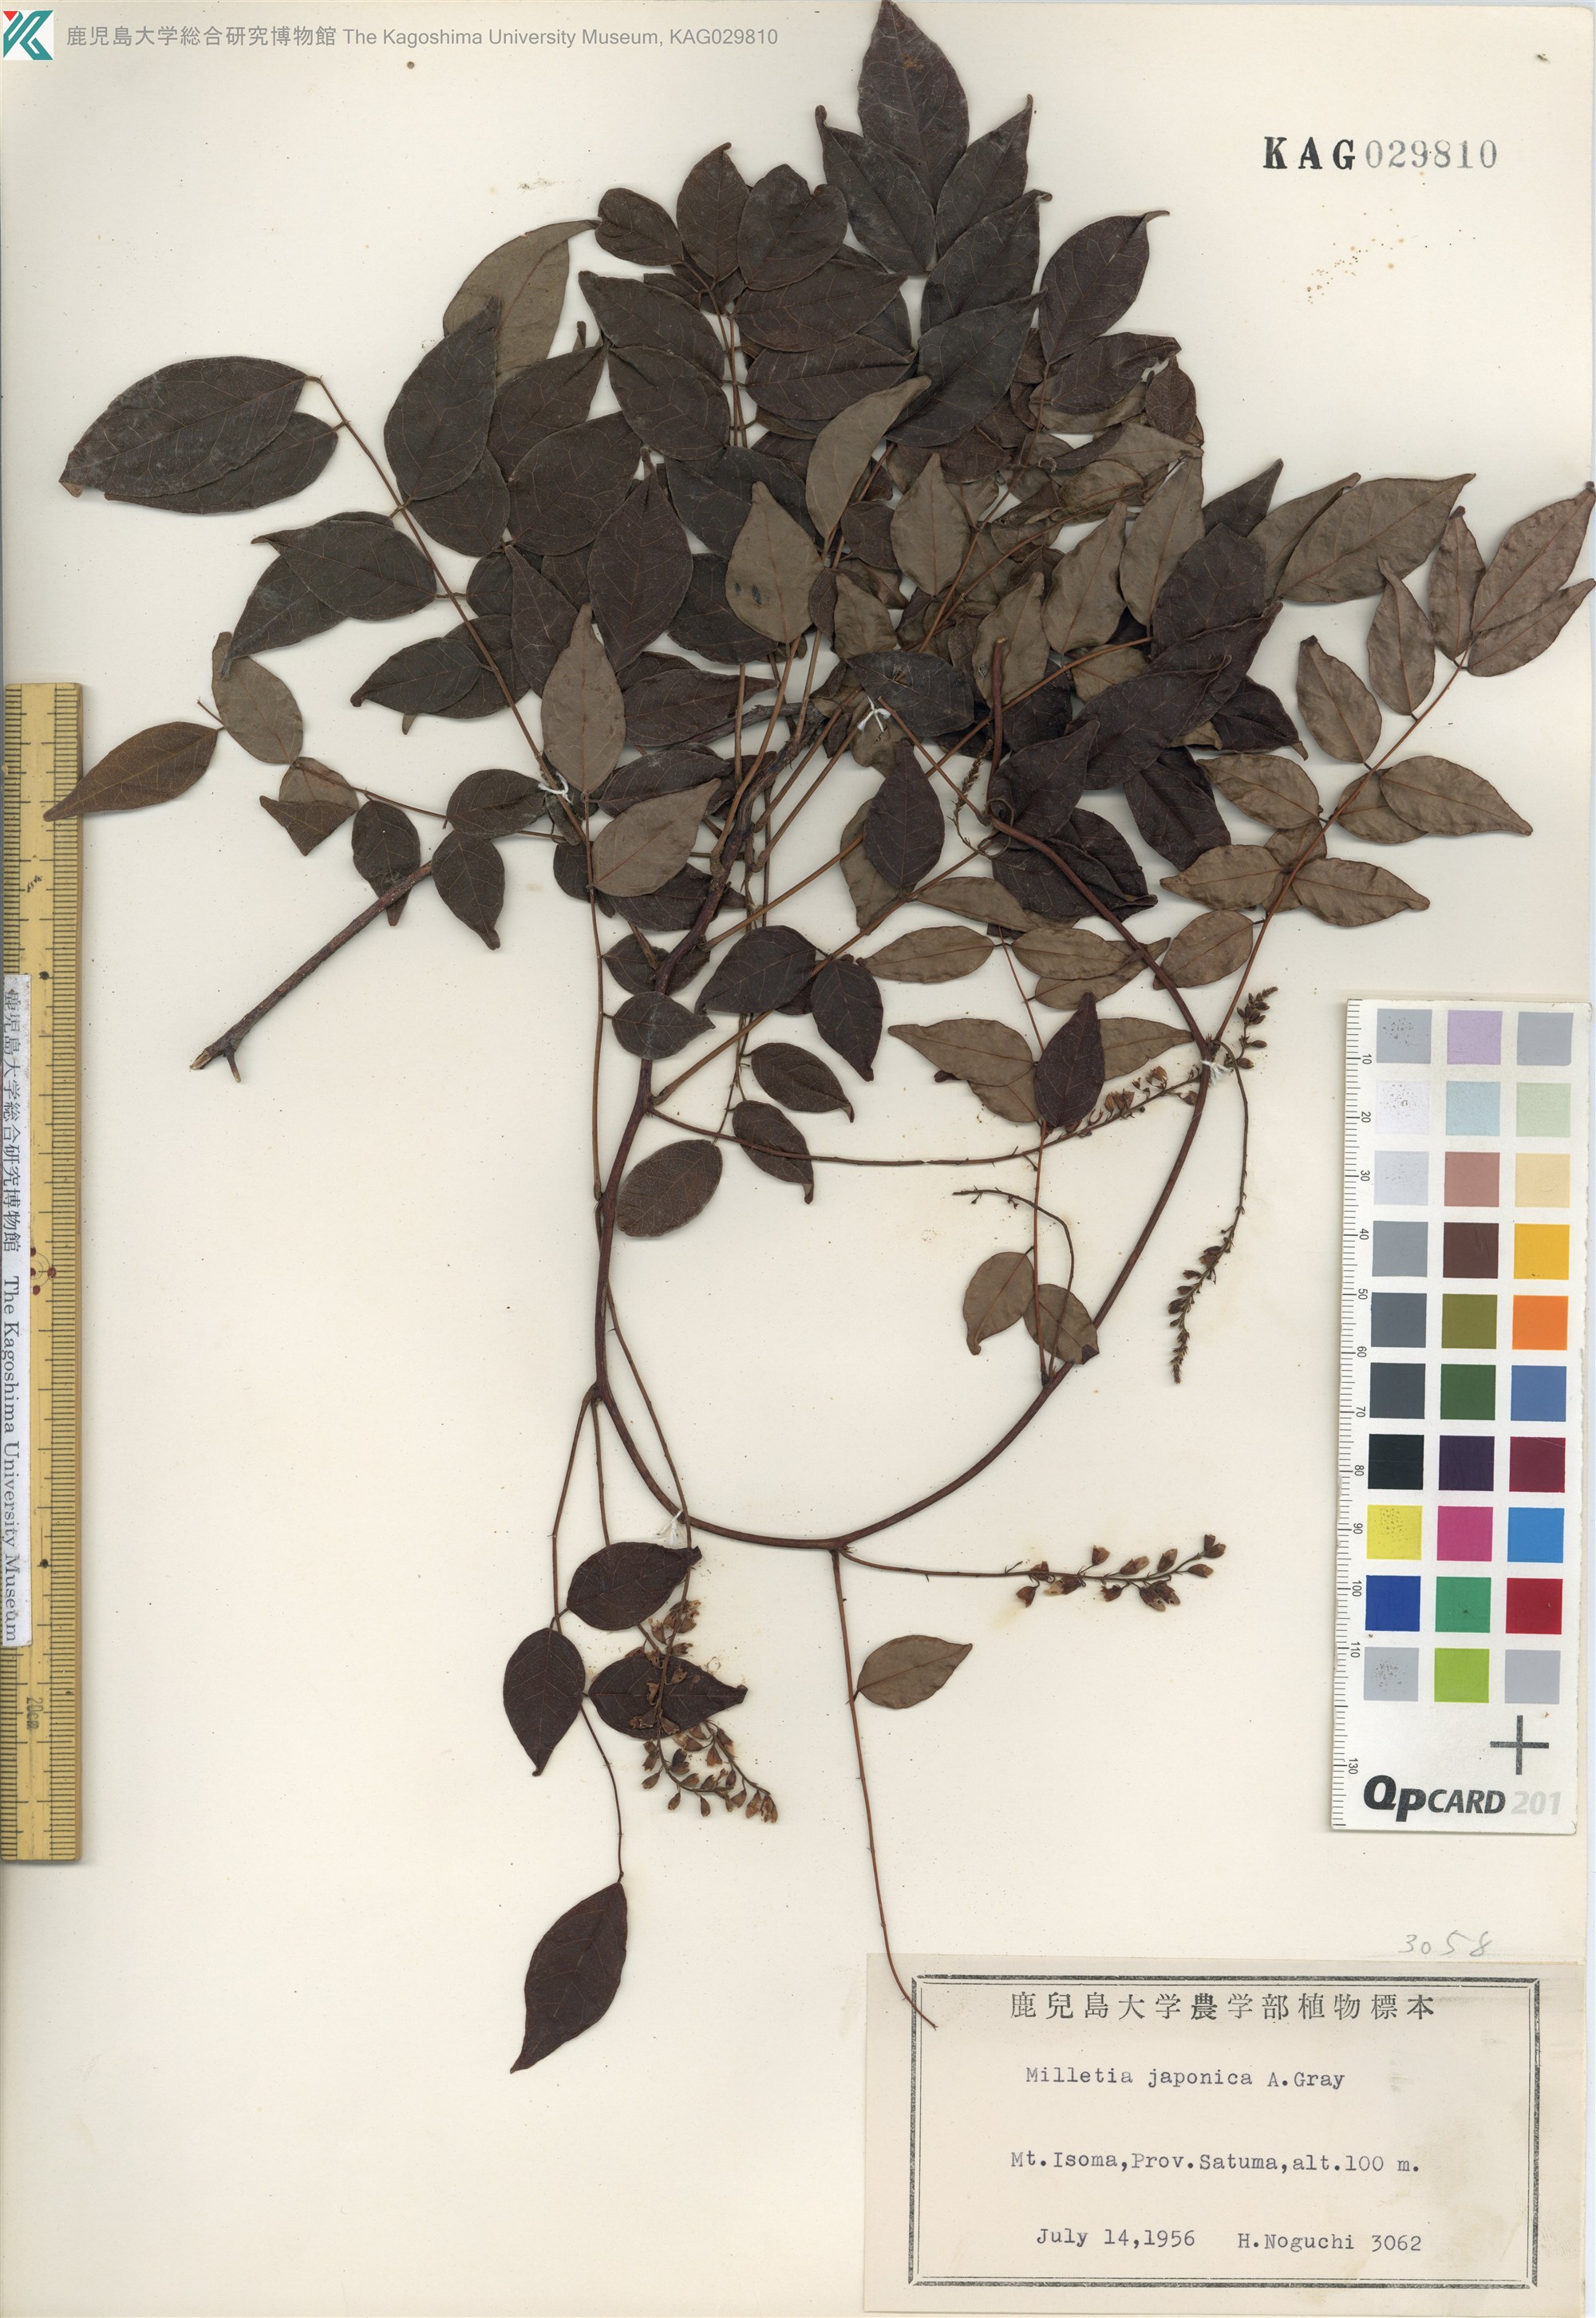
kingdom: Plantae
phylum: Tracheophyta
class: Magnoliopsida
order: Fabales
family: Fabaceae
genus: Wisteriopsis
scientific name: Wisteriopsis japonica
